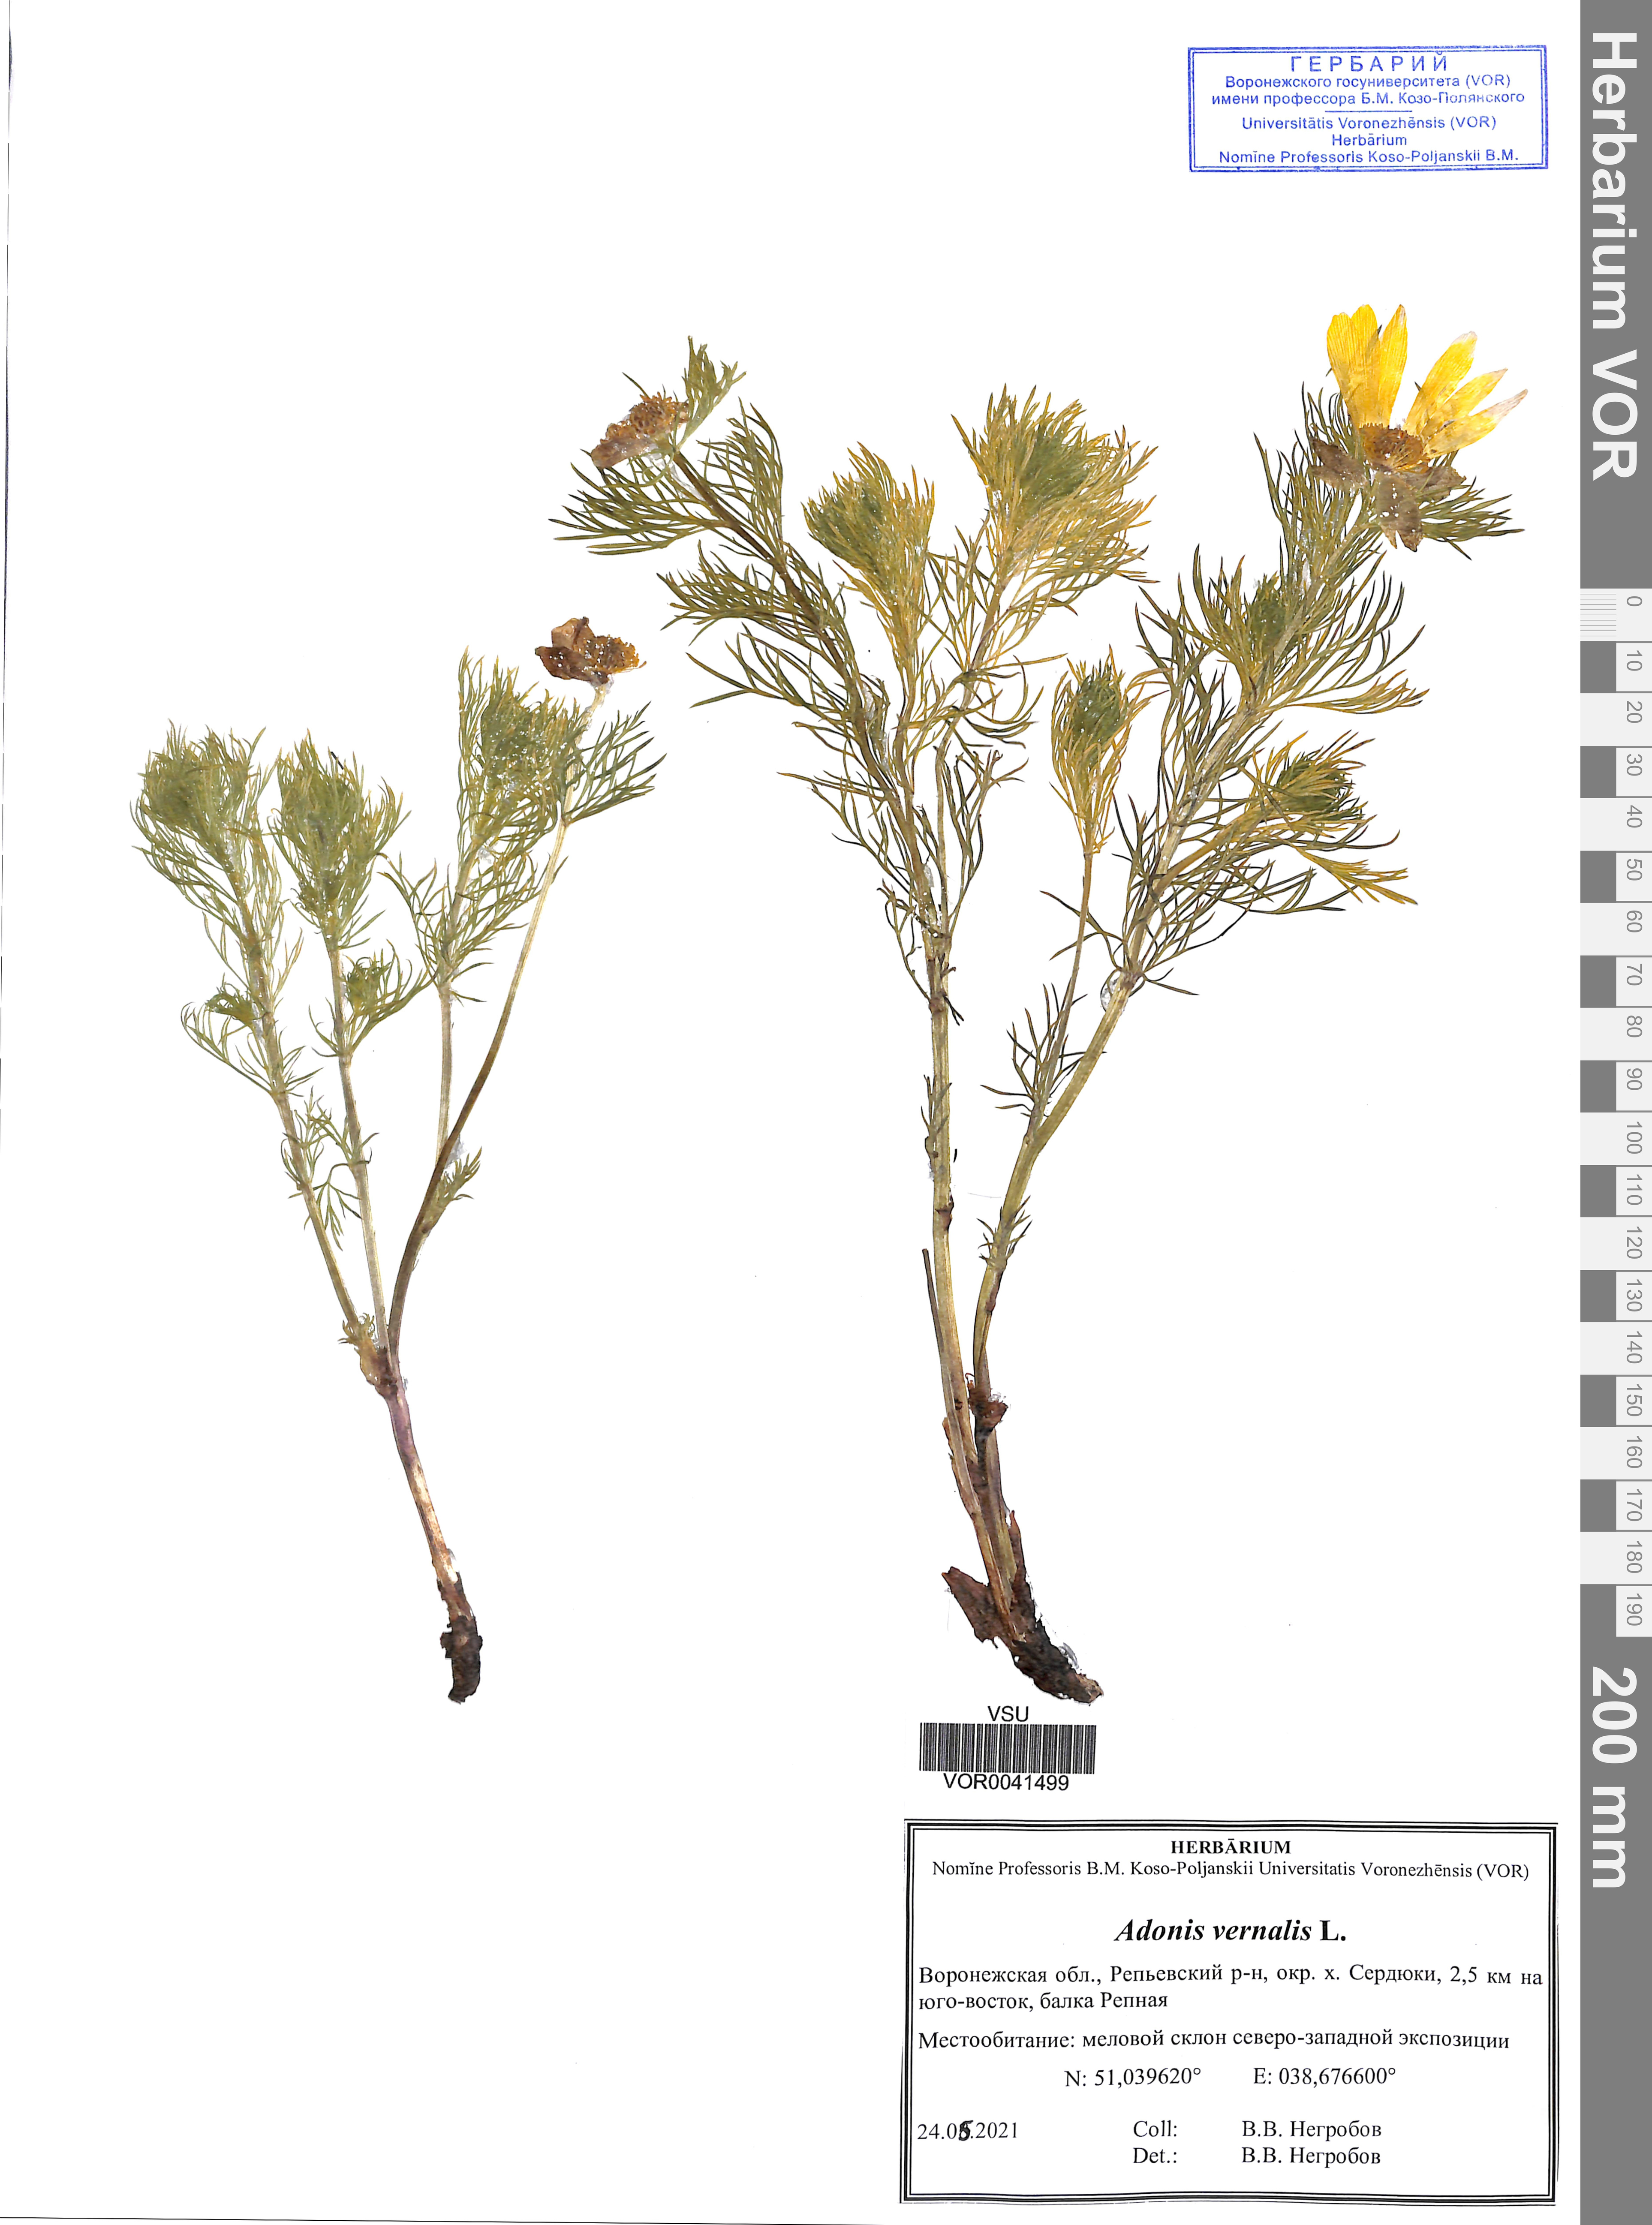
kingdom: Plantae
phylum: Tracheophyta
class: Magnoliopsida
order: Ranunculales
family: Ranunculaceae
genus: Adonis
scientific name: Adonis vernalis
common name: Yellow pheasants-eye
